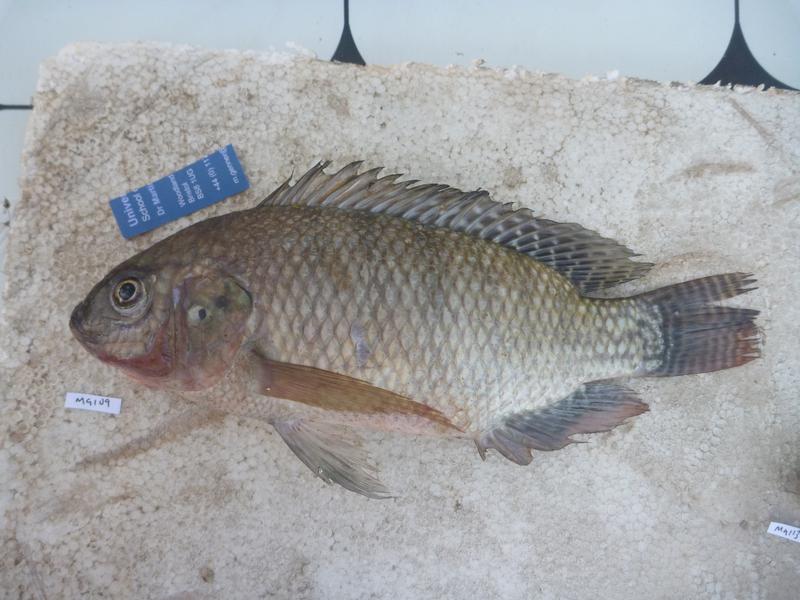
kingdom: Animalia
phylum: Chordata
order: Perciformes
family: Cichlidae
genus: Oreochromis
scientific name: Oreochromis niloticus
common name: Nile tilapia
